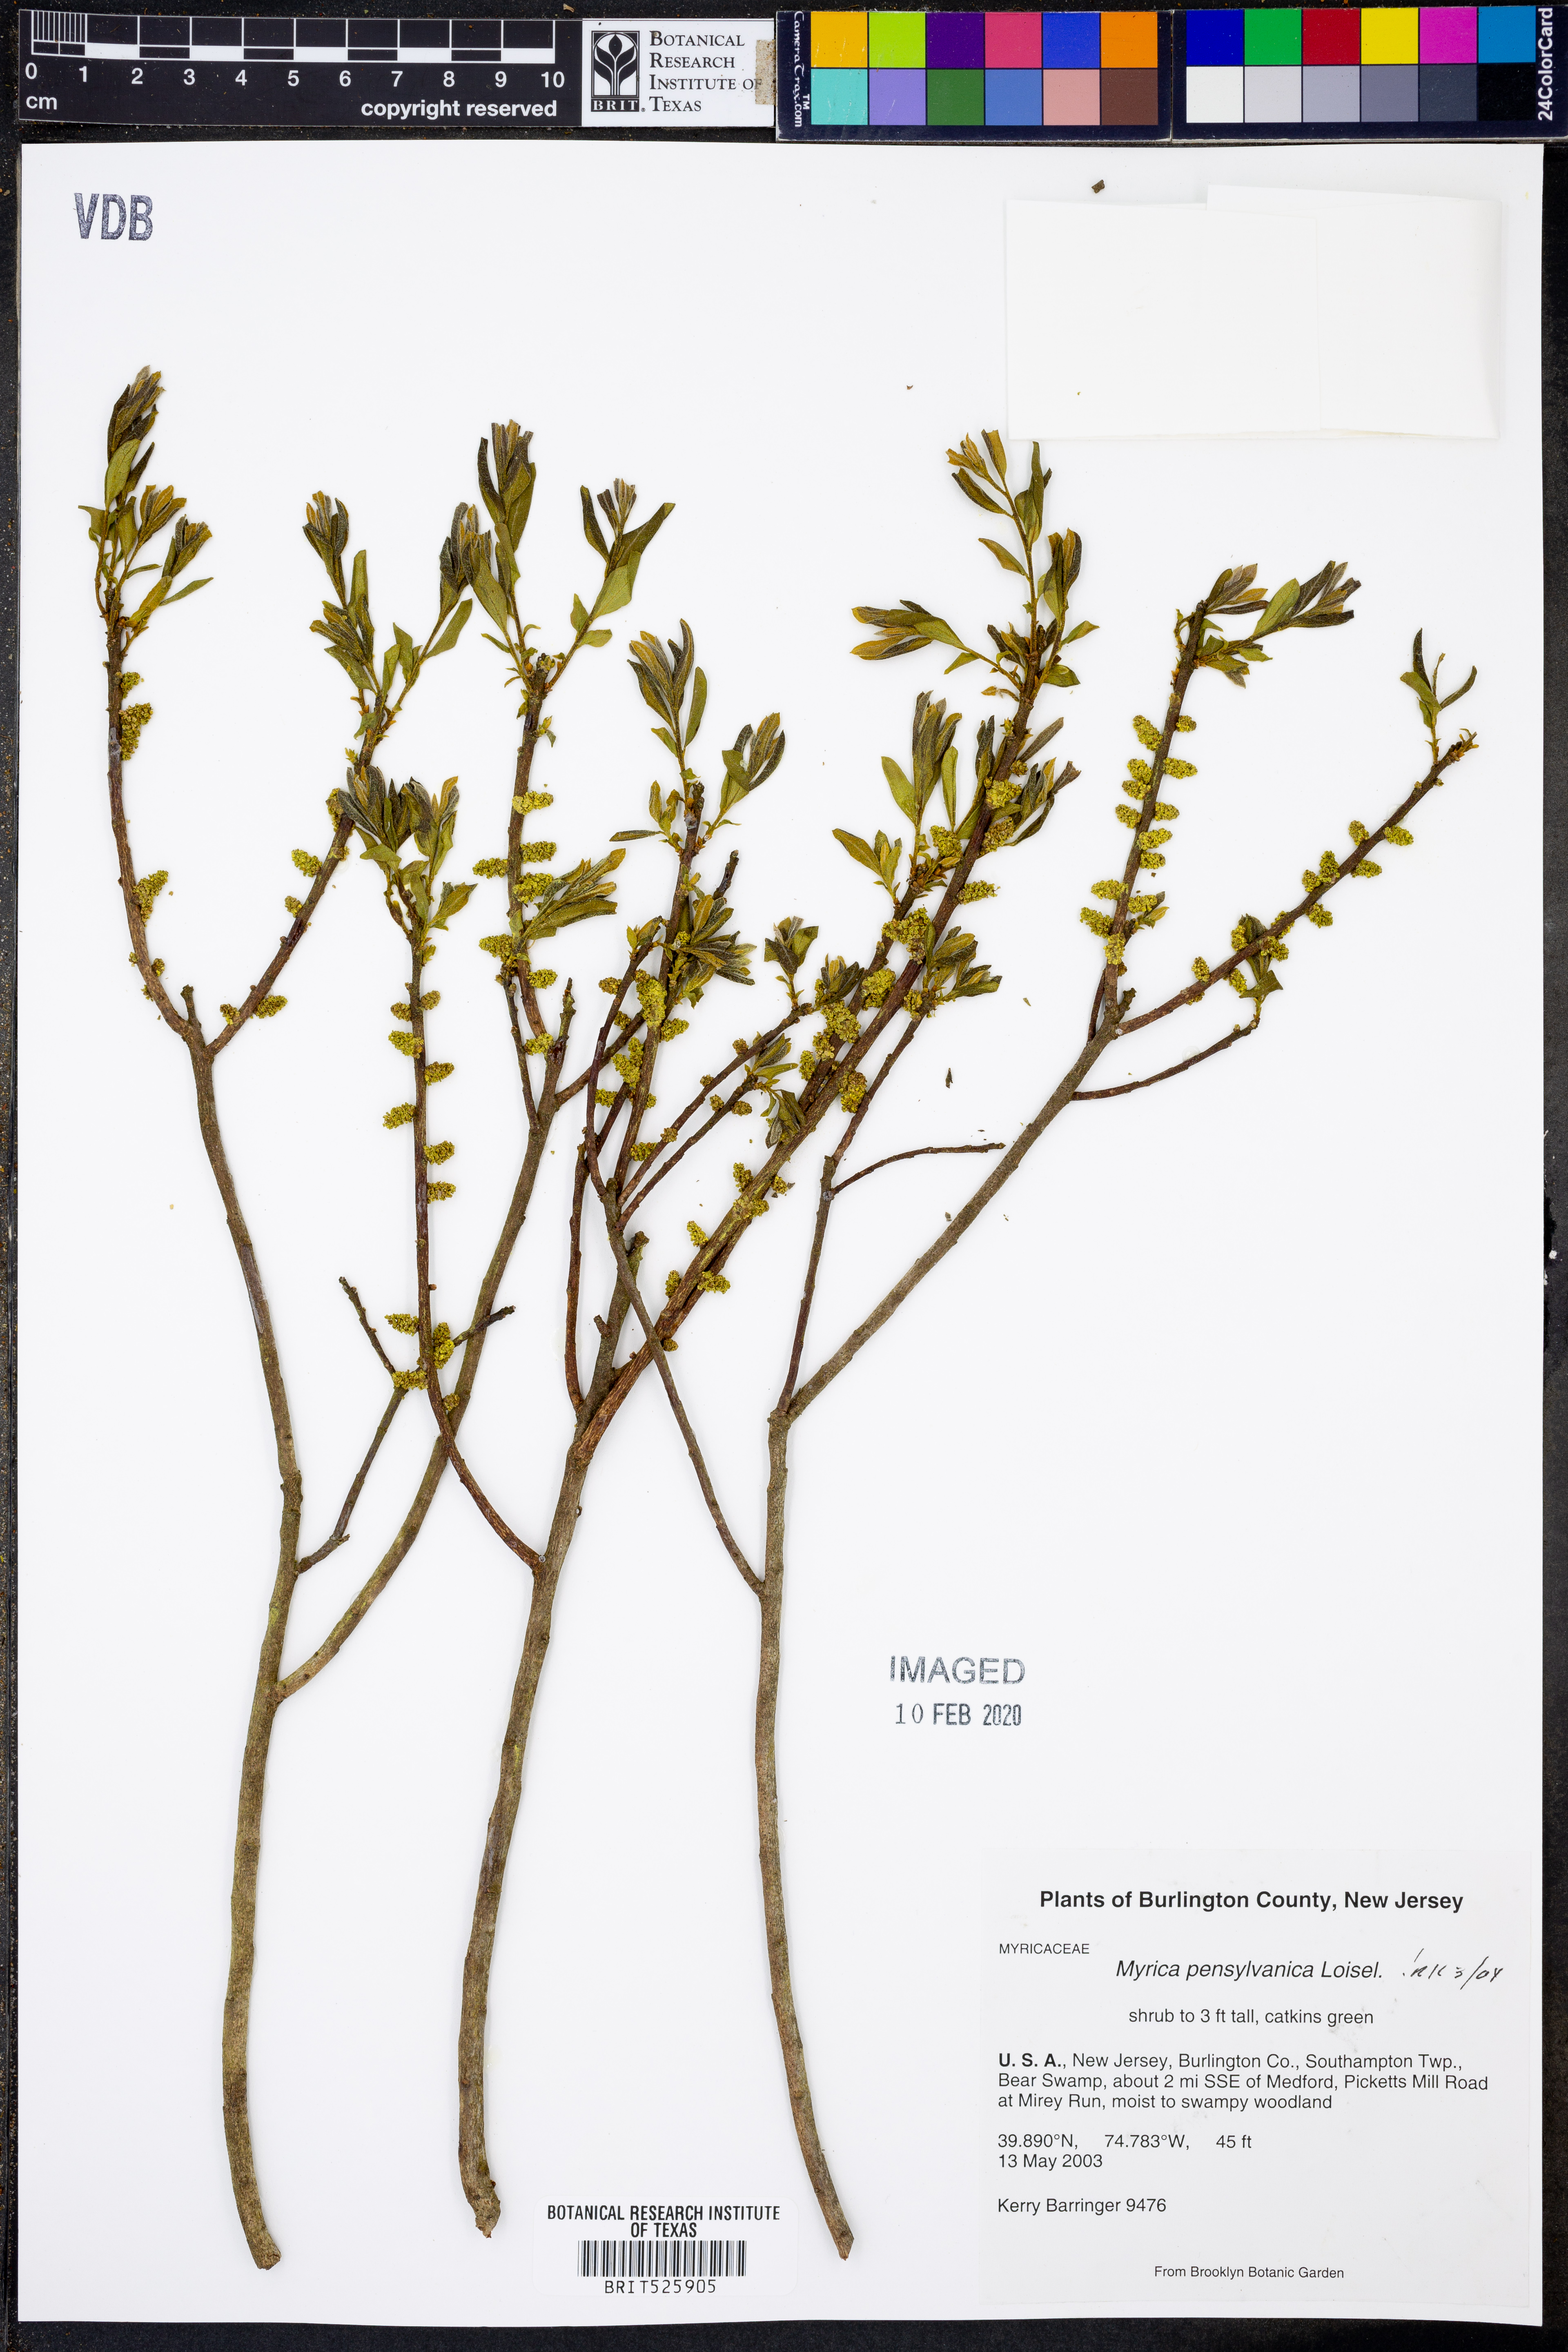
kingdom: Plantae
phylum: Tracheophyta
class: Magnoliopsida
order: Fagales
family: Myricaceae
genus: Morella
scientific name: Morella pensylvanica
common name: Northern bayberry
